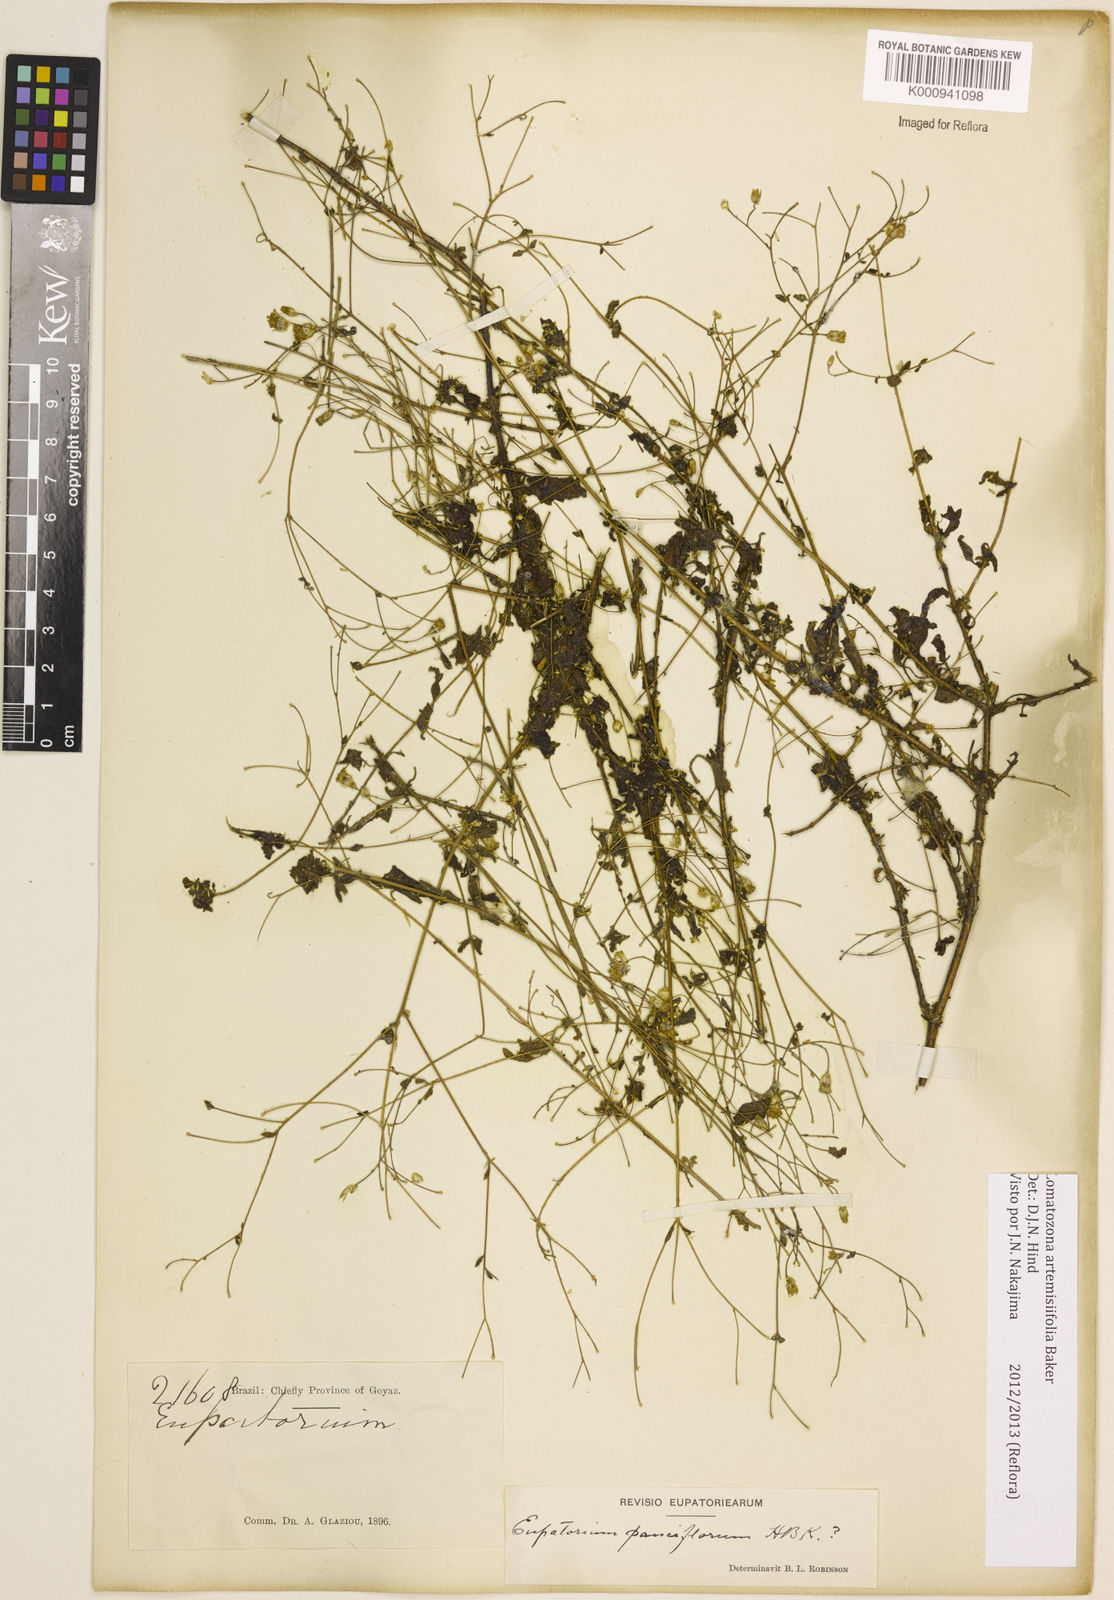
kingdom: Plantae
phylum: Tracheophyta
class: Magnoliopsida
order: Asterales
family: Asteraceae
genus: Lomatozona
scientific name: Lomatozona artemisiifolia
